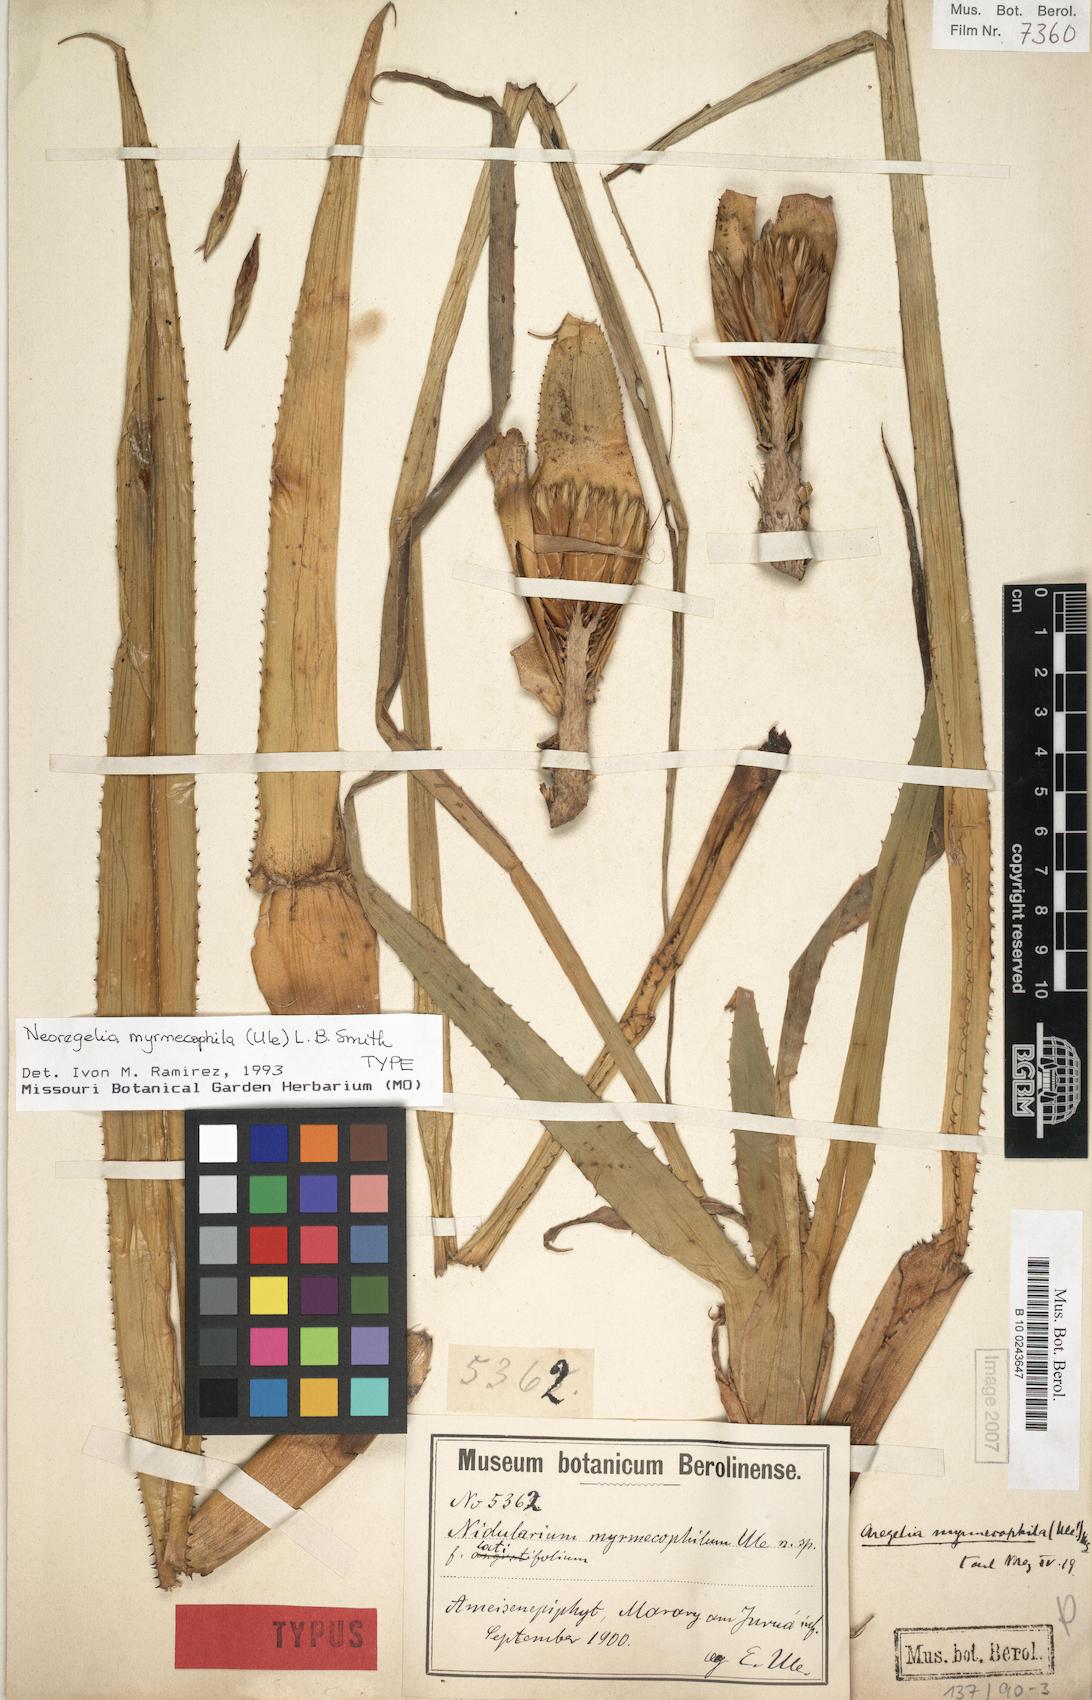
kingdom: Plantae
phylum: Tracheophyta
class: Liliopsida
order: Poales
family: Bromeliaceae
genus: Hylaeaicum
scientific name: Hylaeaicum myrmecophilum
